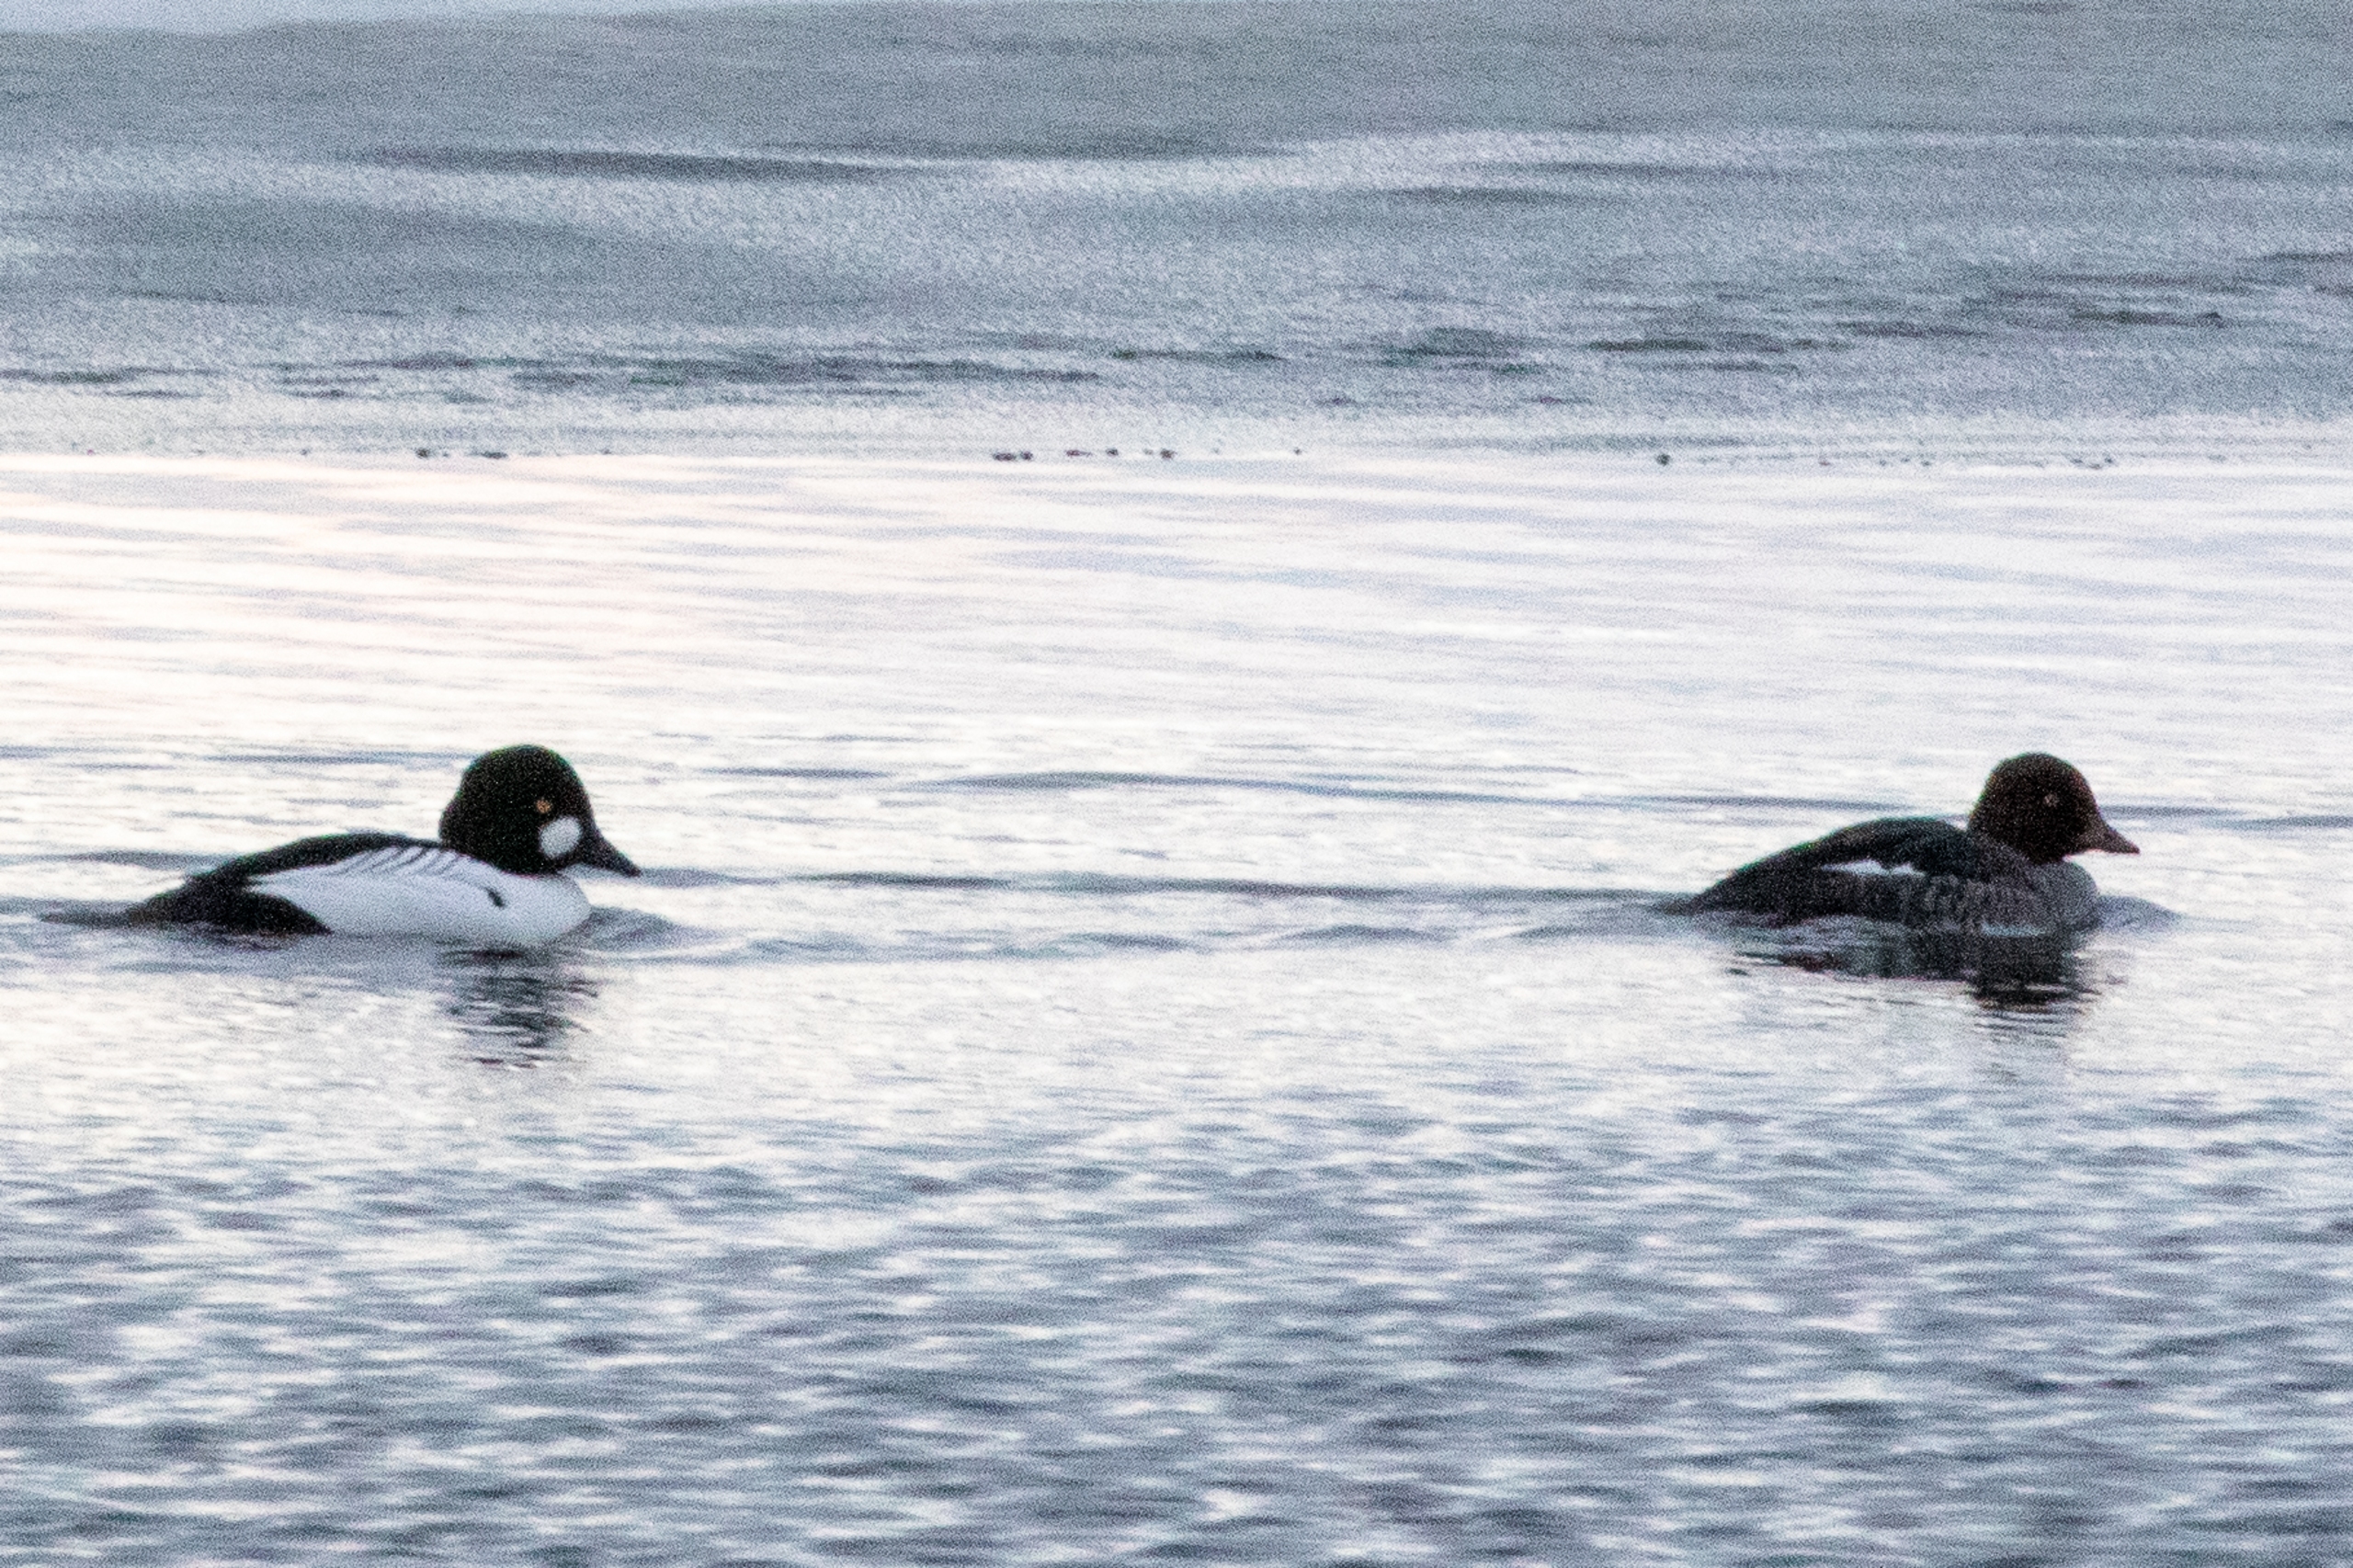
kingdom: Animalia
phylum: Chordata
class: Aves
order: Anseriformes
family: Anatidae
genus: Bucephala
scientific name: Bucephala clangula
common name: Hvinand
